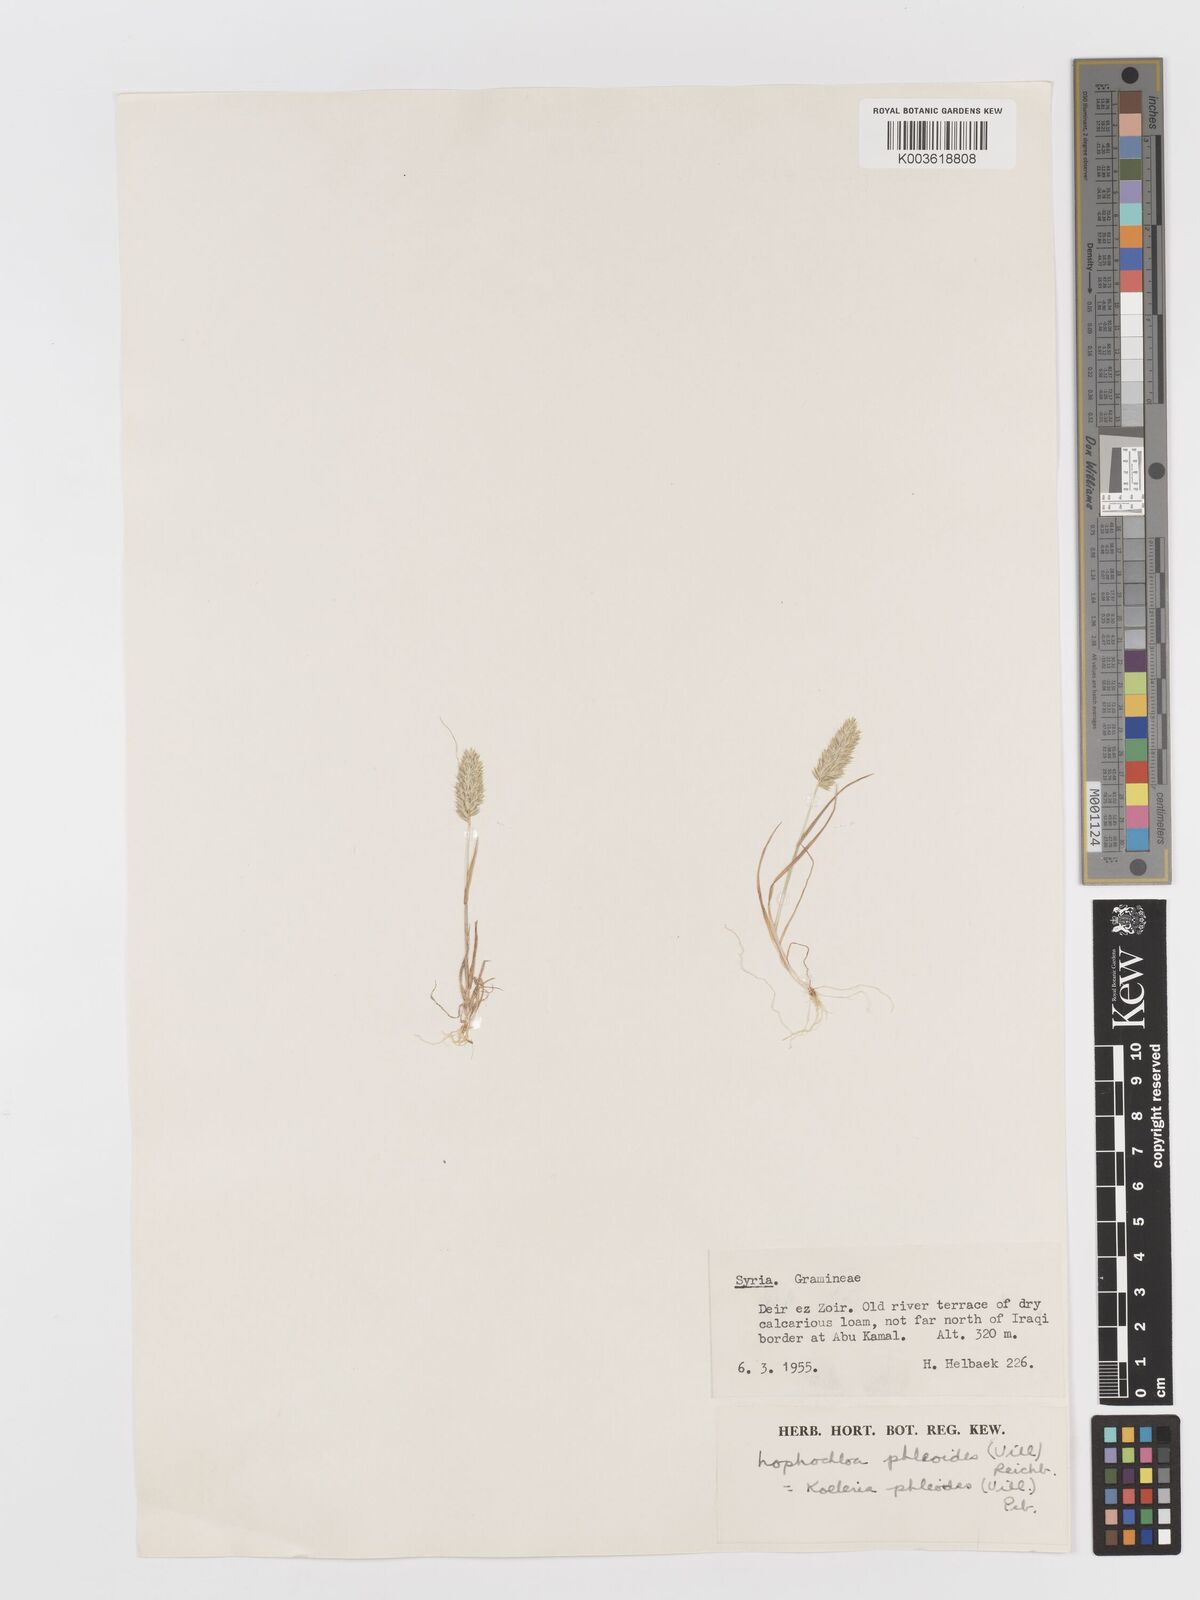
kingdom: Plantae
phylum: Tracheophyta
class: Liliopsida
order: Poales
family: Poaceae
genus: Rostraria
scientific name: Rostraria cristata
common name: Mediterranean hair-grass
